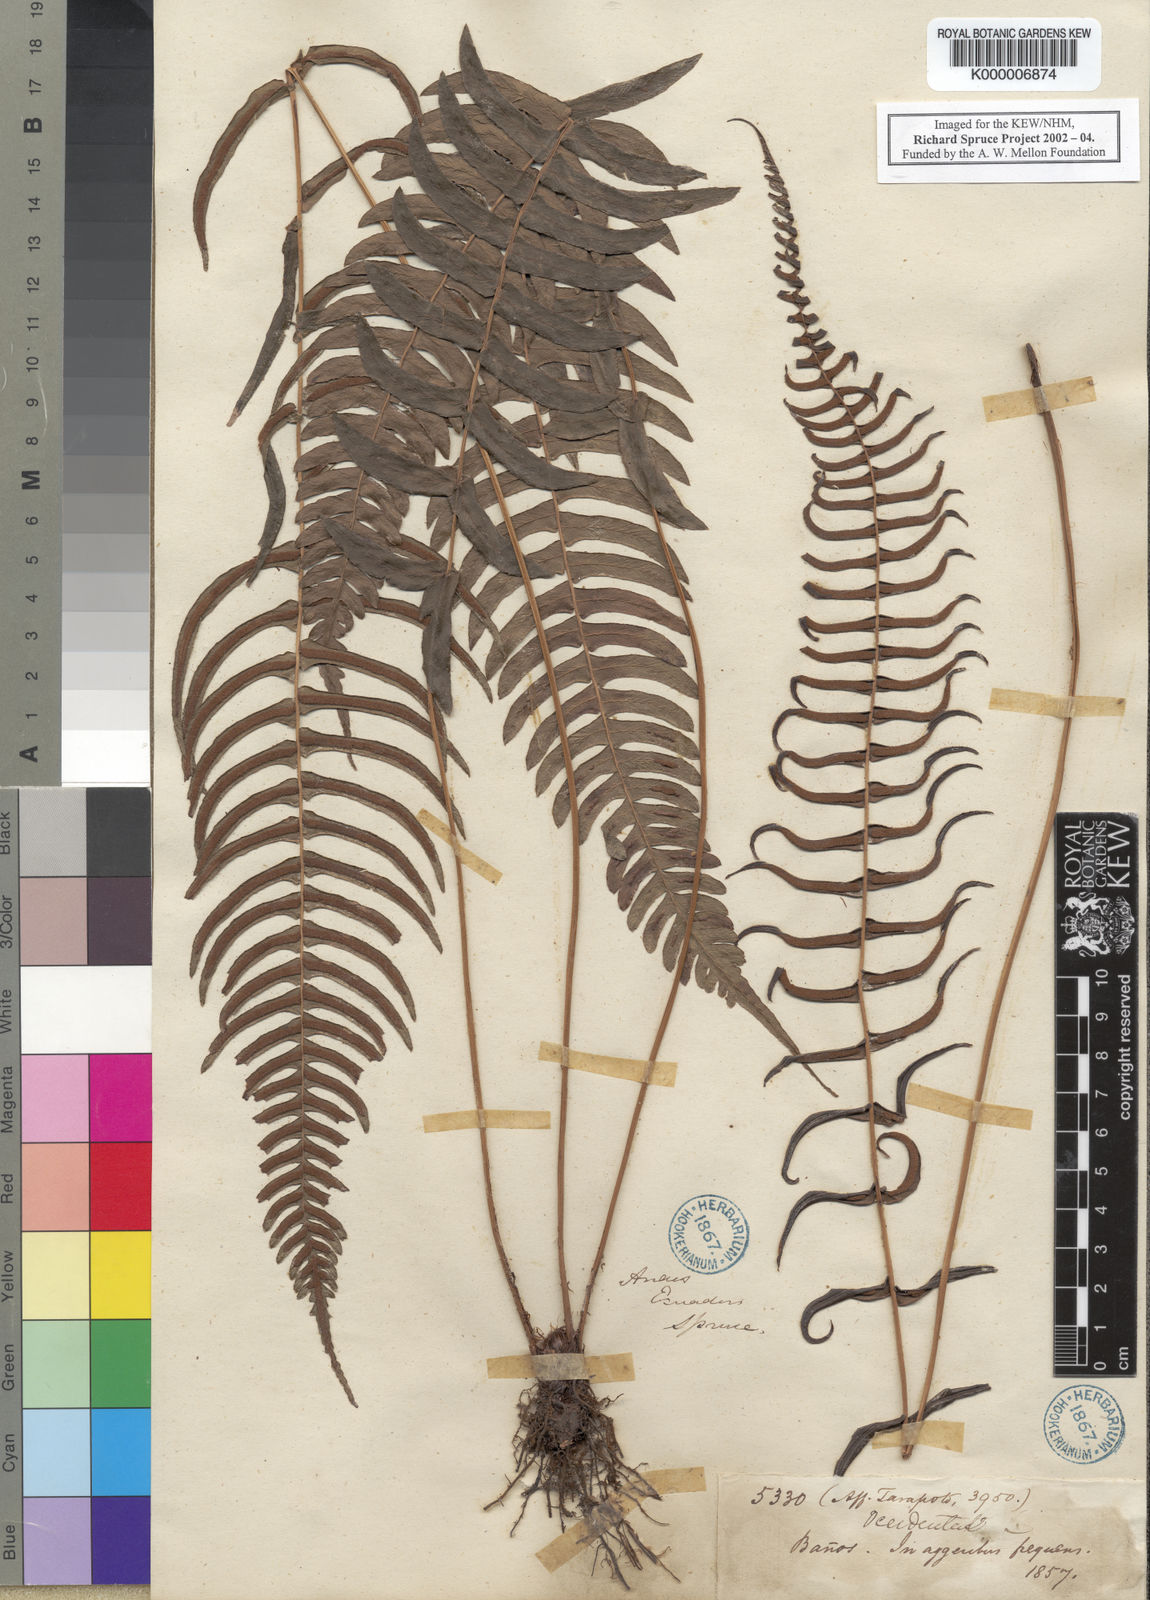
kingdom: Plantae
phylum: Tracheophyta
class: Polypodiopsida
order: Polypodiales
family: Blechnaceae
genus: Blechnum
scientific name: Blechnum occidentale
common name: Hammock fern
